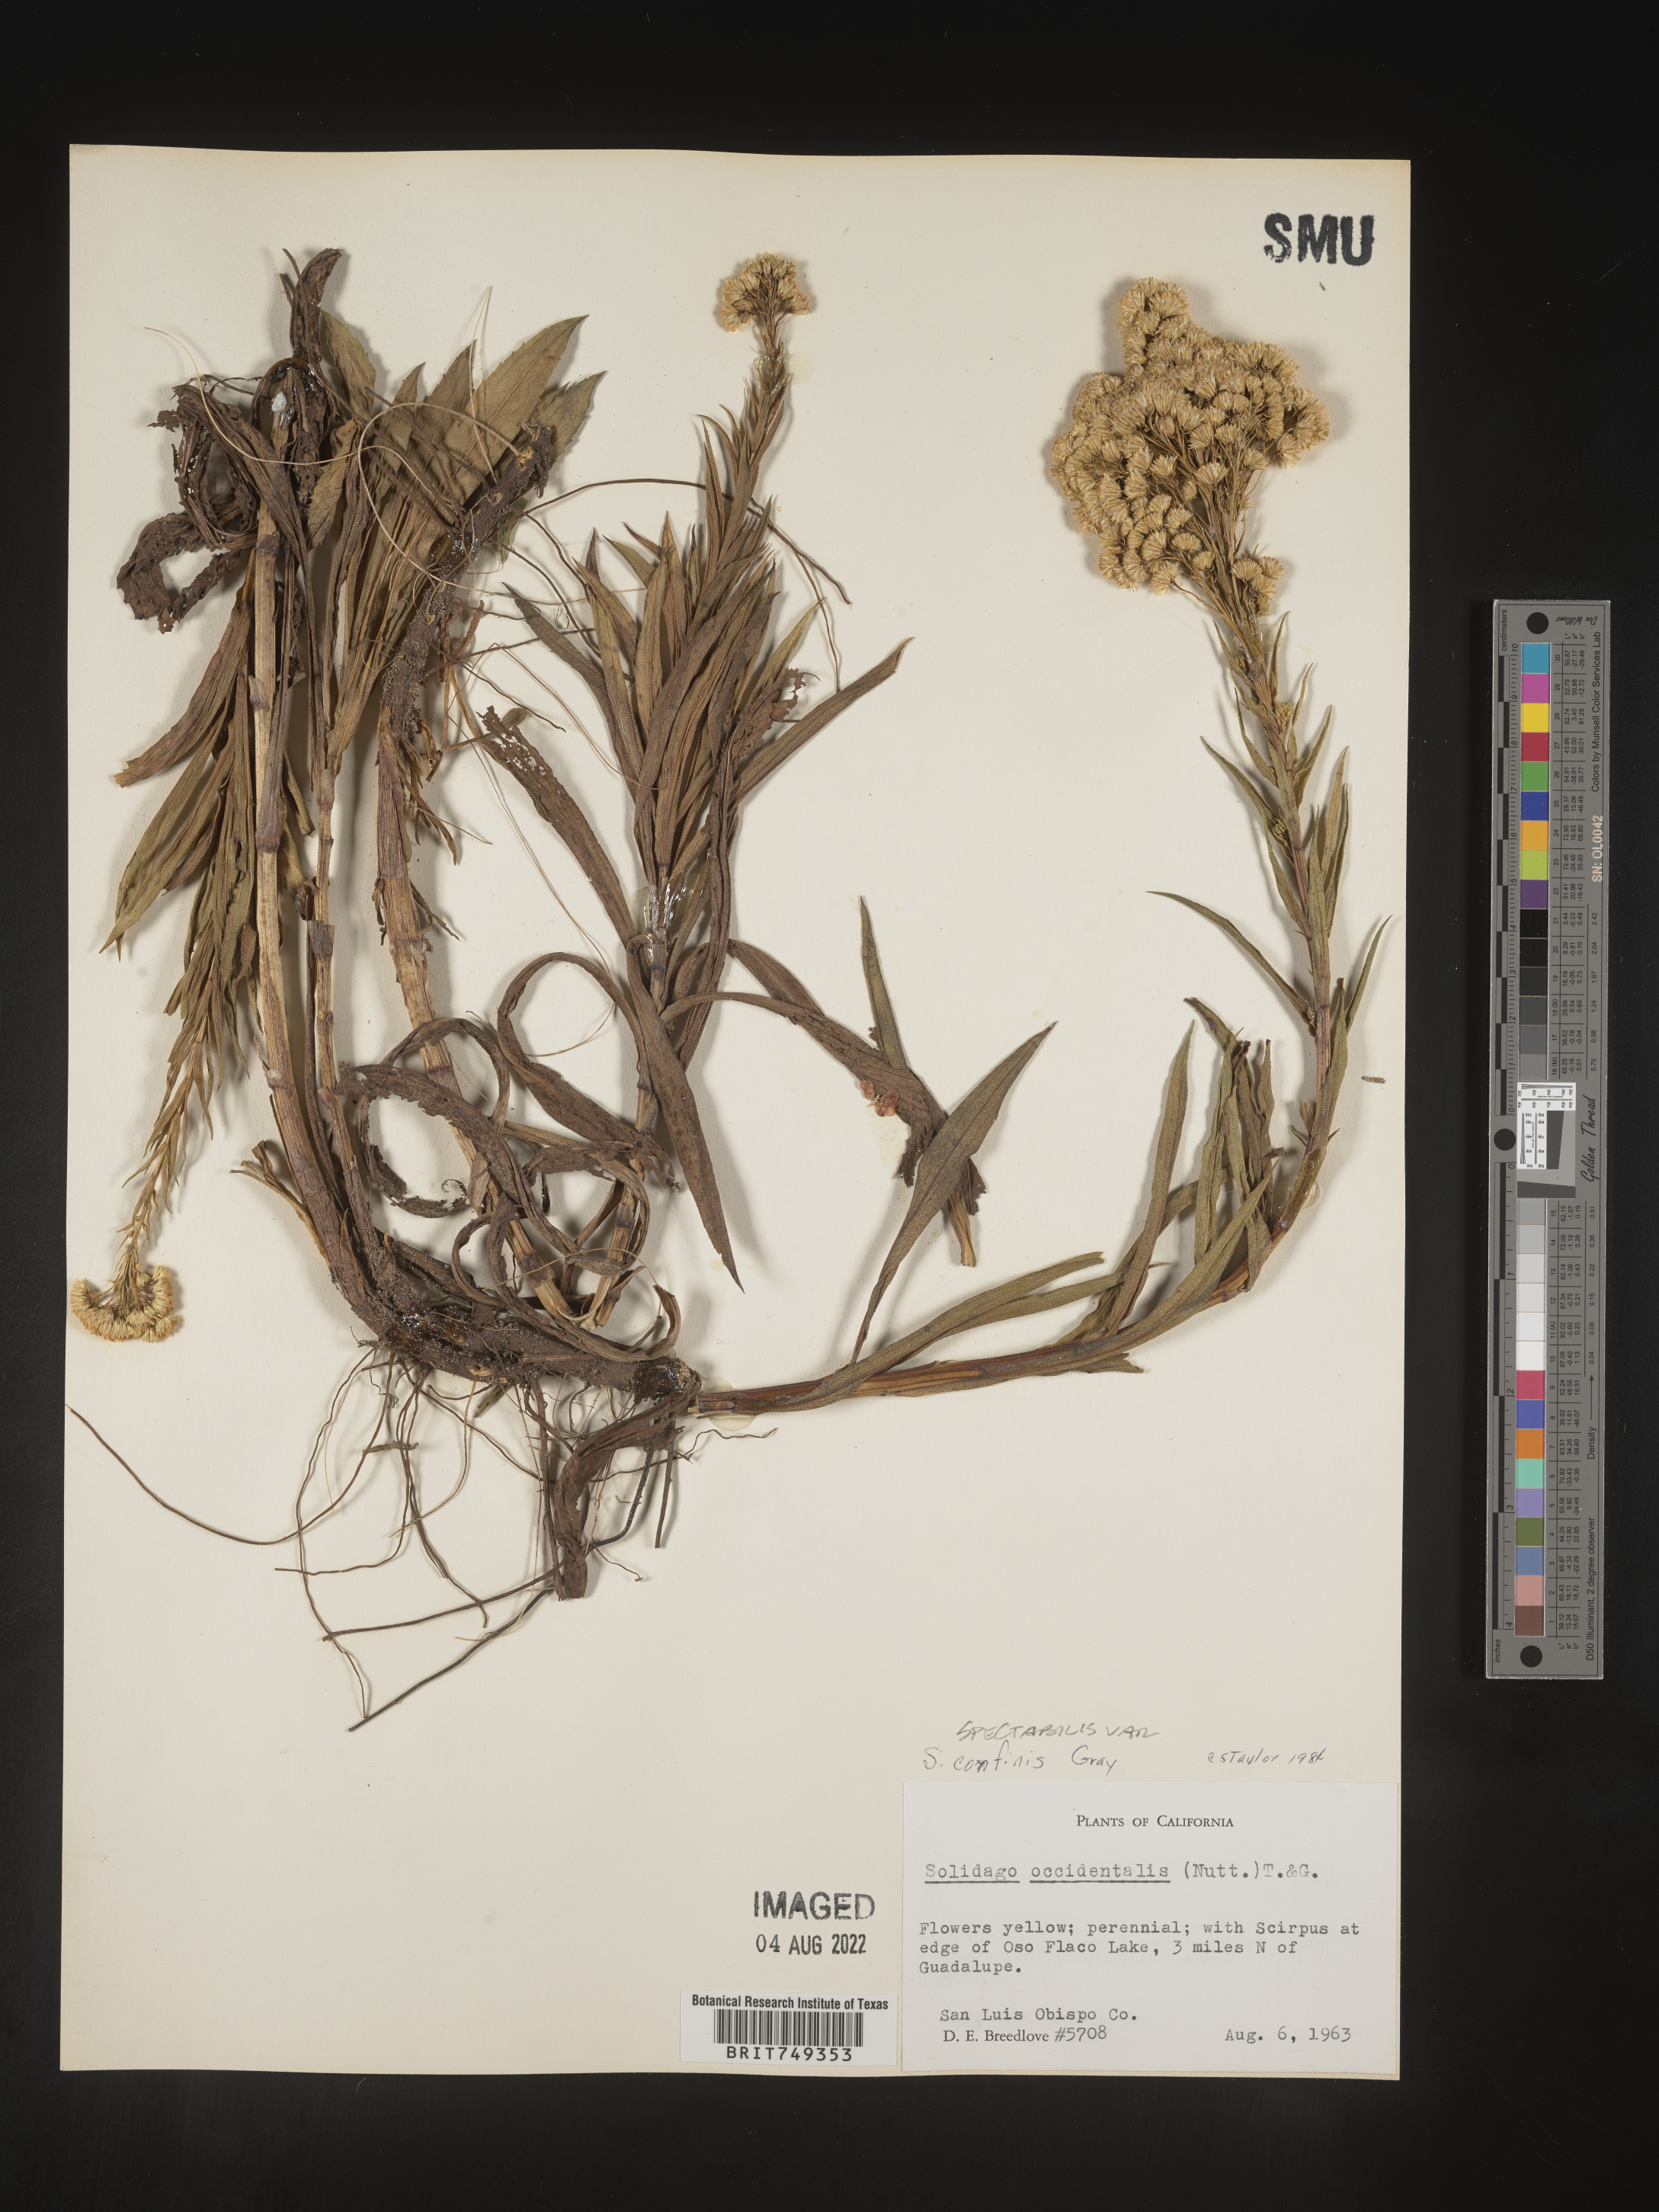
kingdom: Plantae
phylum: Tracheophyta
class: Magnoliopsida
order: Asterales
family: Asteraceae
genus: Solidago
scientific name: Solidago confinis
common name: Southern goldenrod
